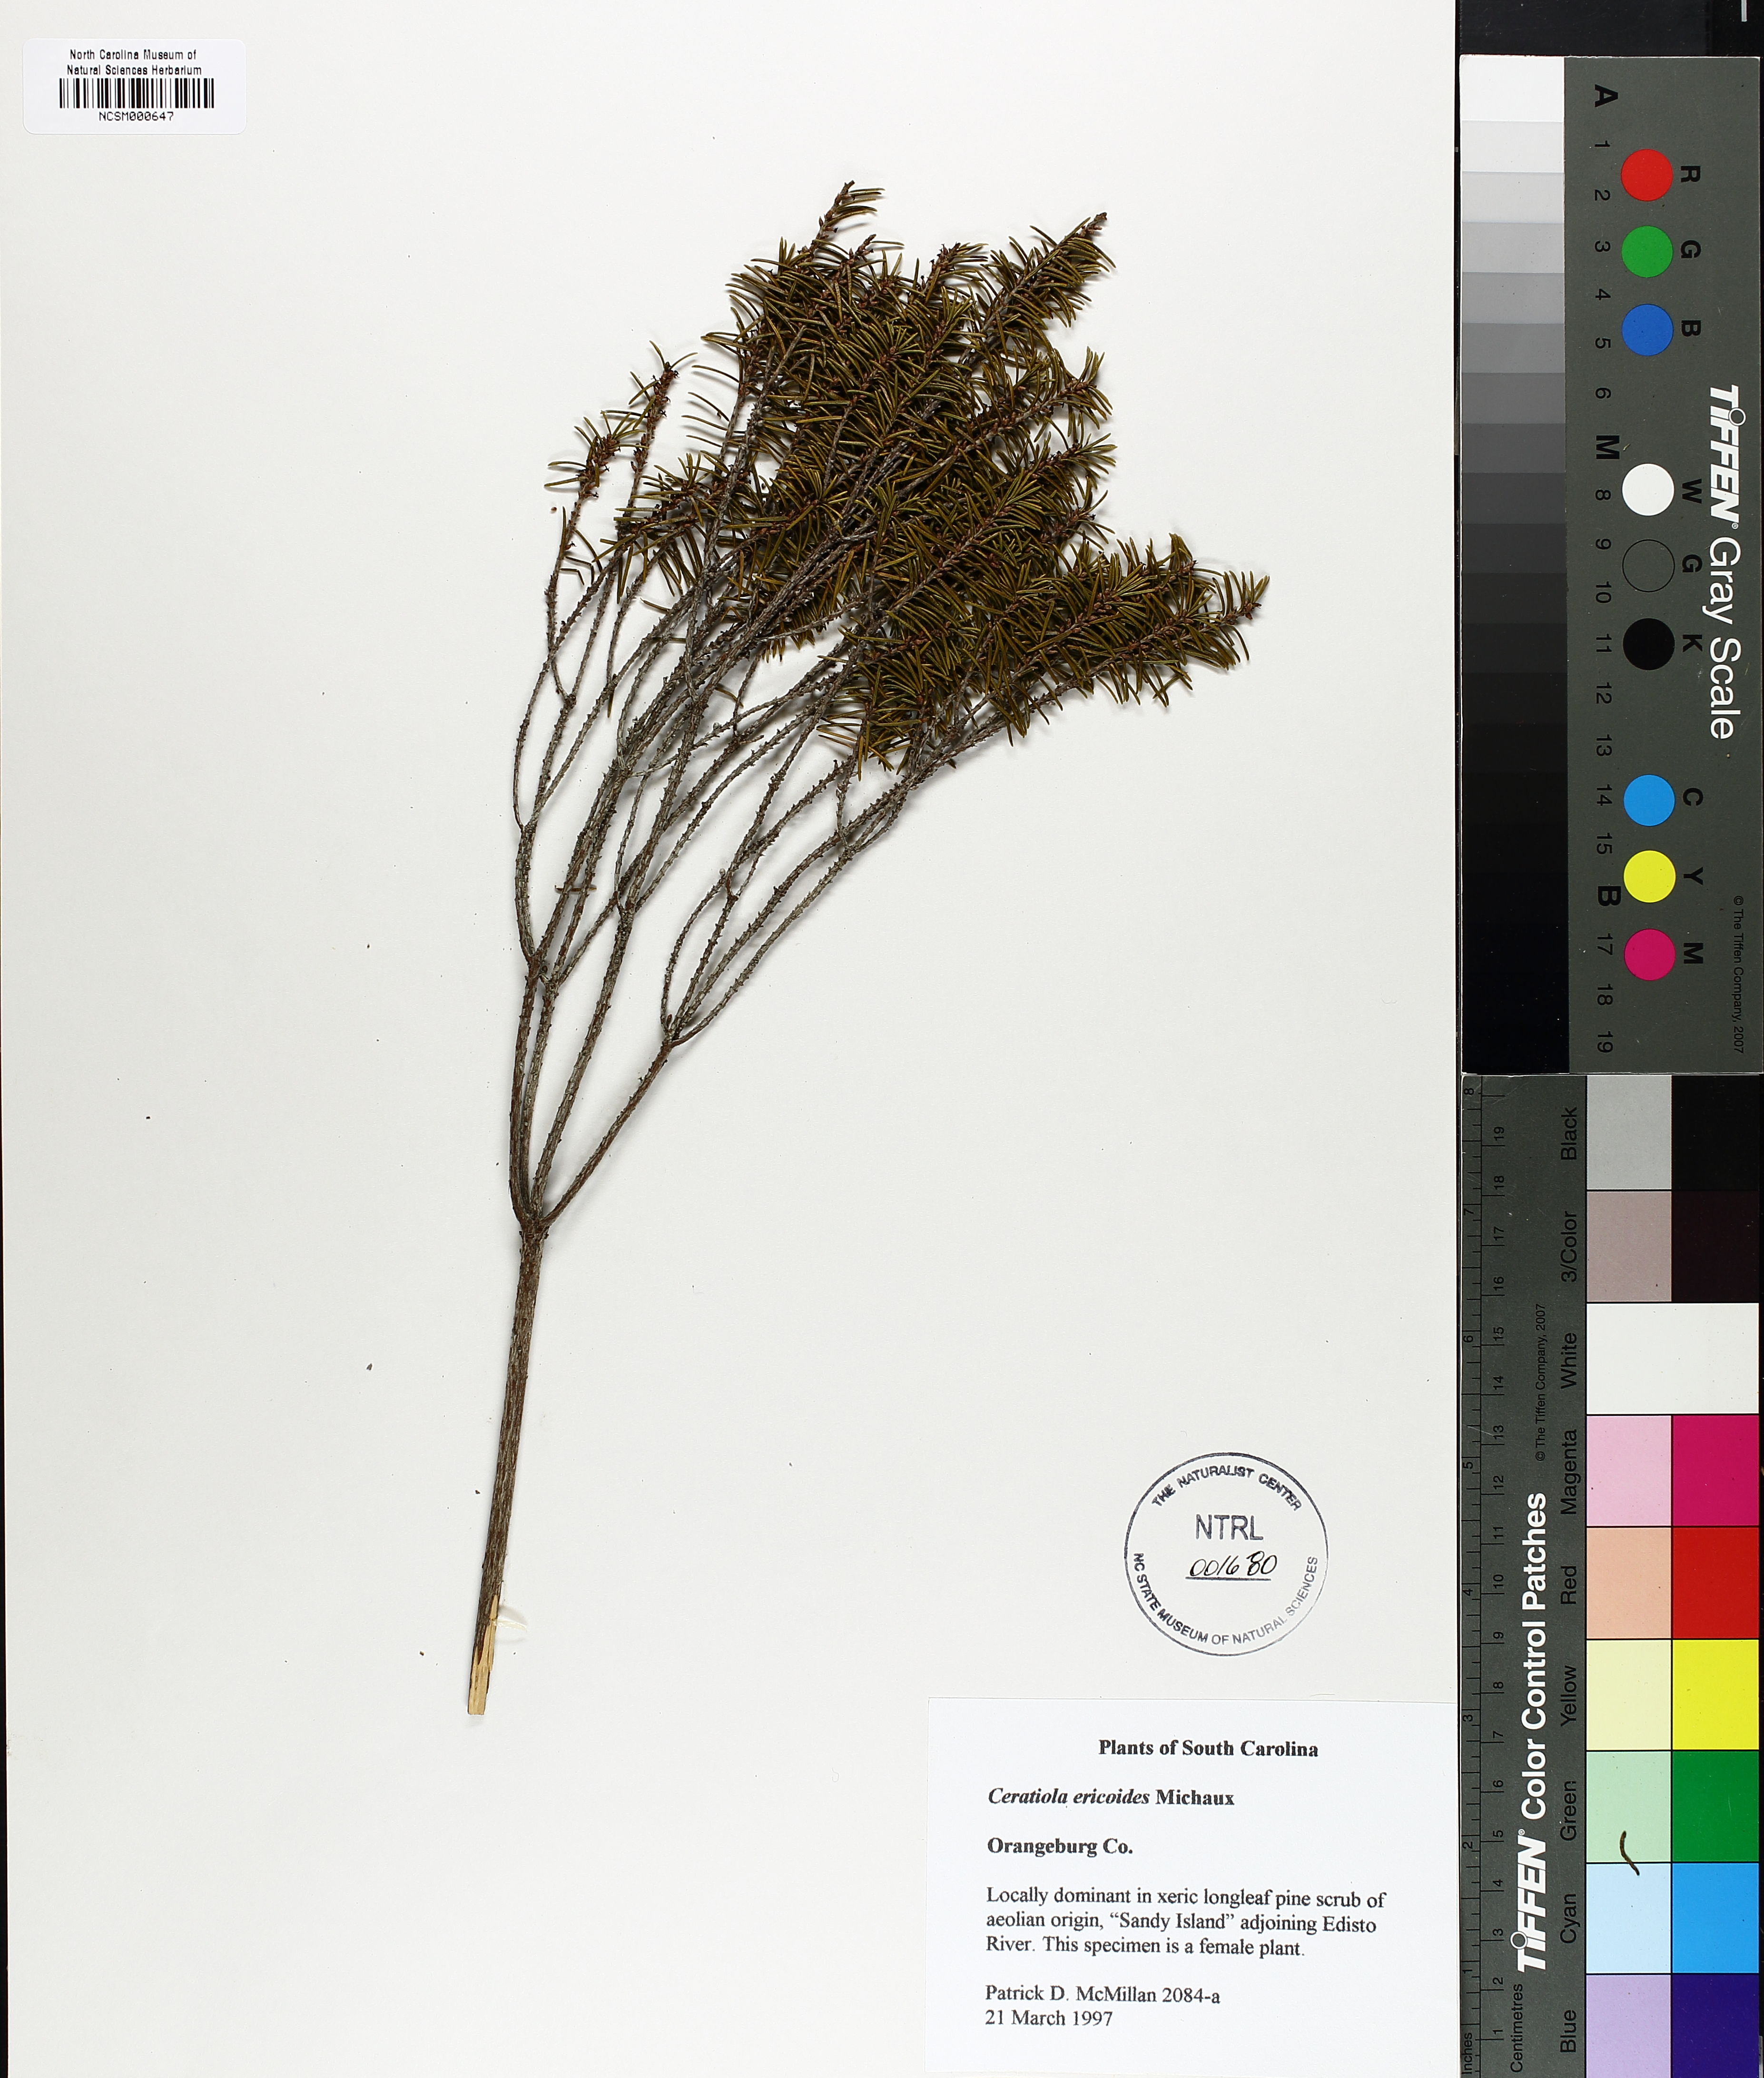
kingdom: Plantae
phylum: Tracheophyta
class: Magnoliopsida
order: Ericales
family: Ericaceae
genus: Ceratiola
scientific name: Ceratiola ericoides
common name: Sandhill-rosemary
